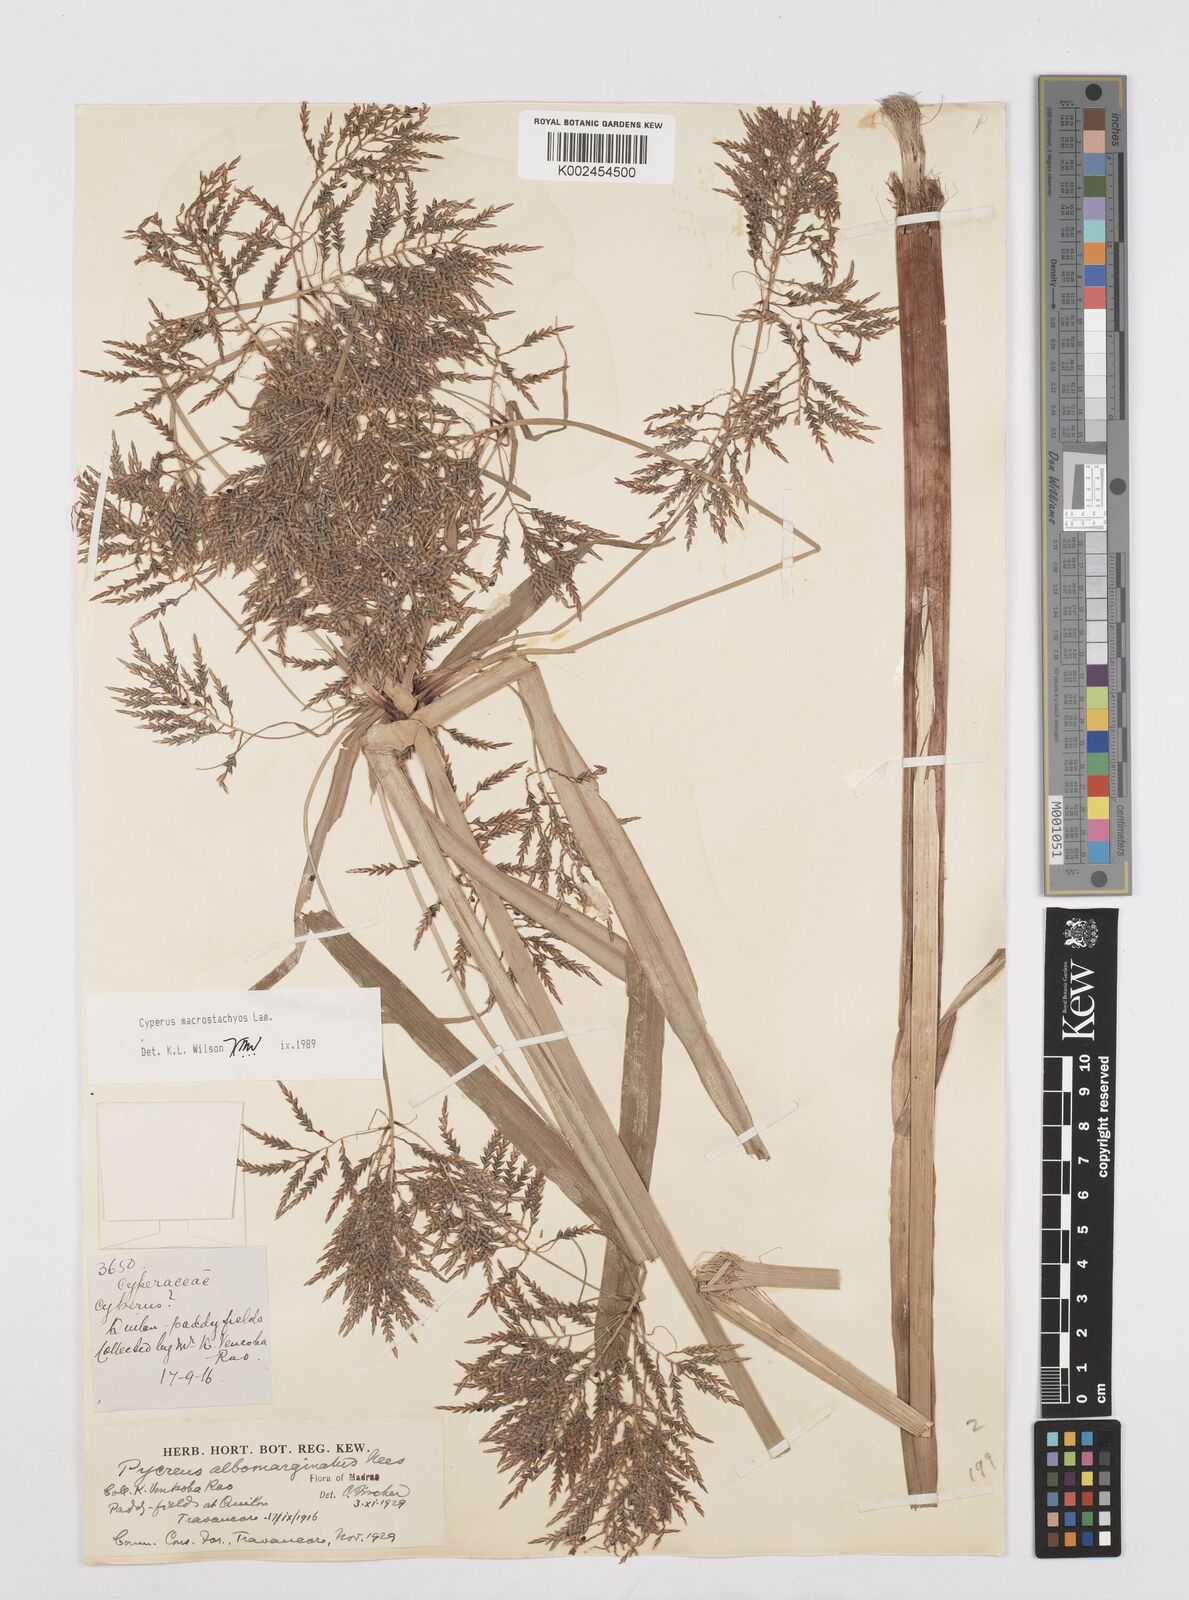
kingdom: Plantae
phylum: Tracheophyta
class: Liliopsida
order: Poales
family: Cyperaceae
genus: Cyperus
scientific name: Cyperus macrostachyos
